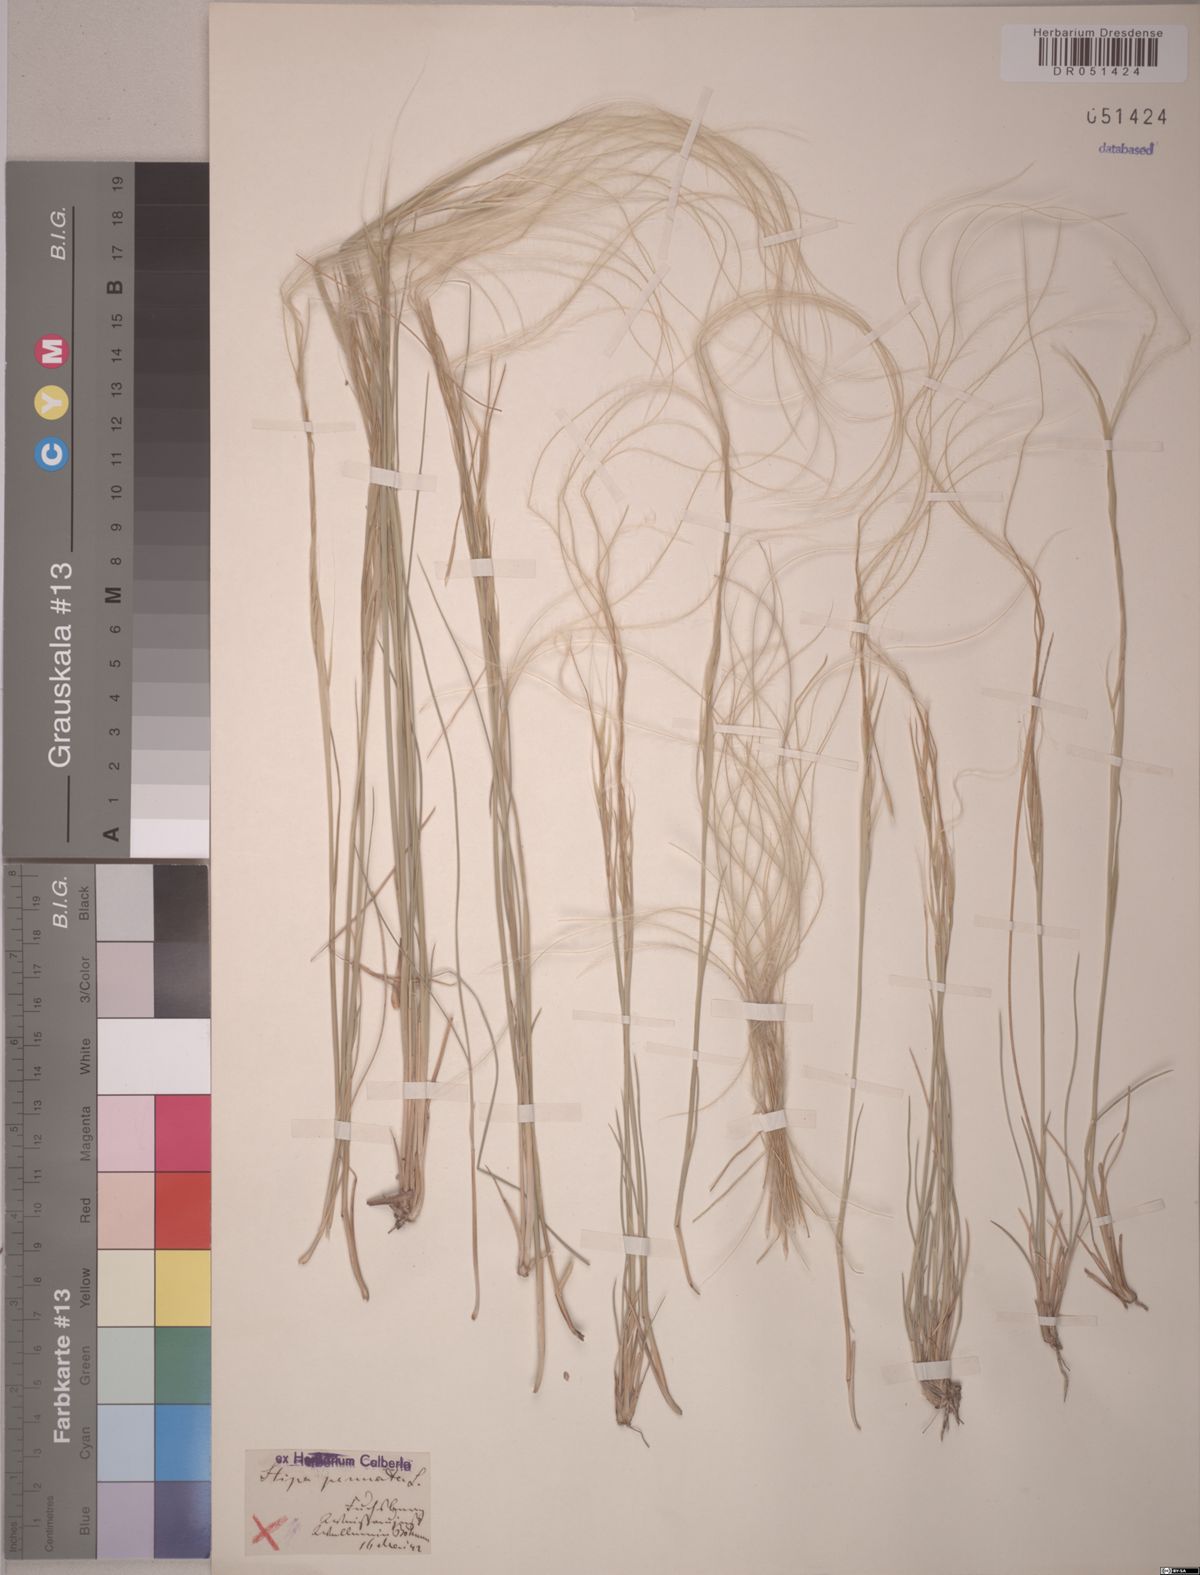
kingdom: Plantae
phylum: Tracheophyta
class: Liliopsida
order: Poales
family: Poaceae
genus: Stipa
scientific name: Stipa pennata
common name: European feather grass
